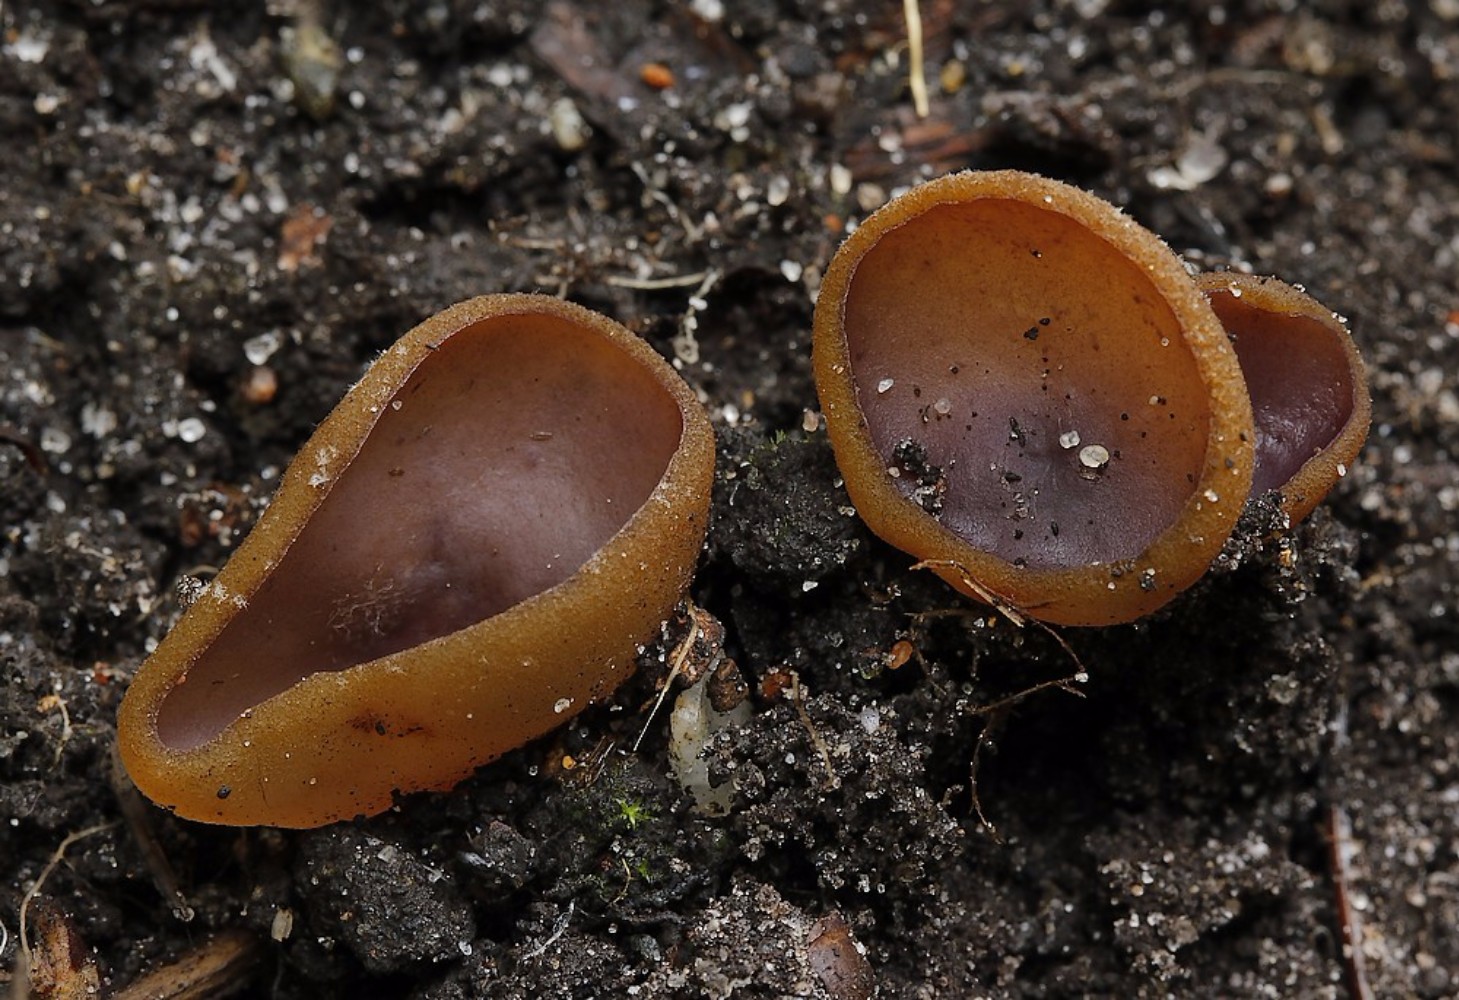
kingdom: Fungi
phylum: Ascomycota
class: Pezizomycetes
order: Pezizales
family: Pezizaceae
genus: Paragalactinia
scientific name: Paragalactinia michelii
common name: gulkødet bægersvamp
